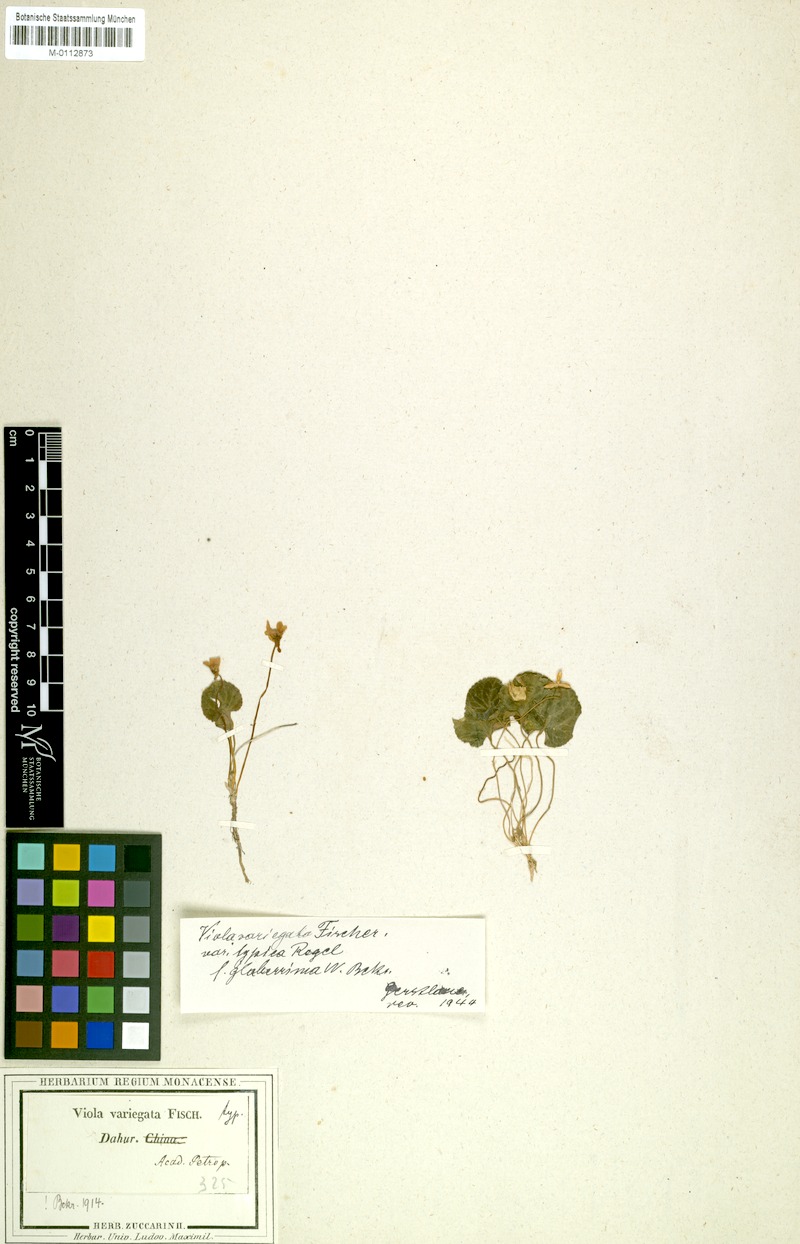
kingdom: Plantae
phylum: Tracheophyta
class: Magnoliopsida
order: Malpighiales
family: Violaceae
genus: Viola
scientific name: Viola variegata
